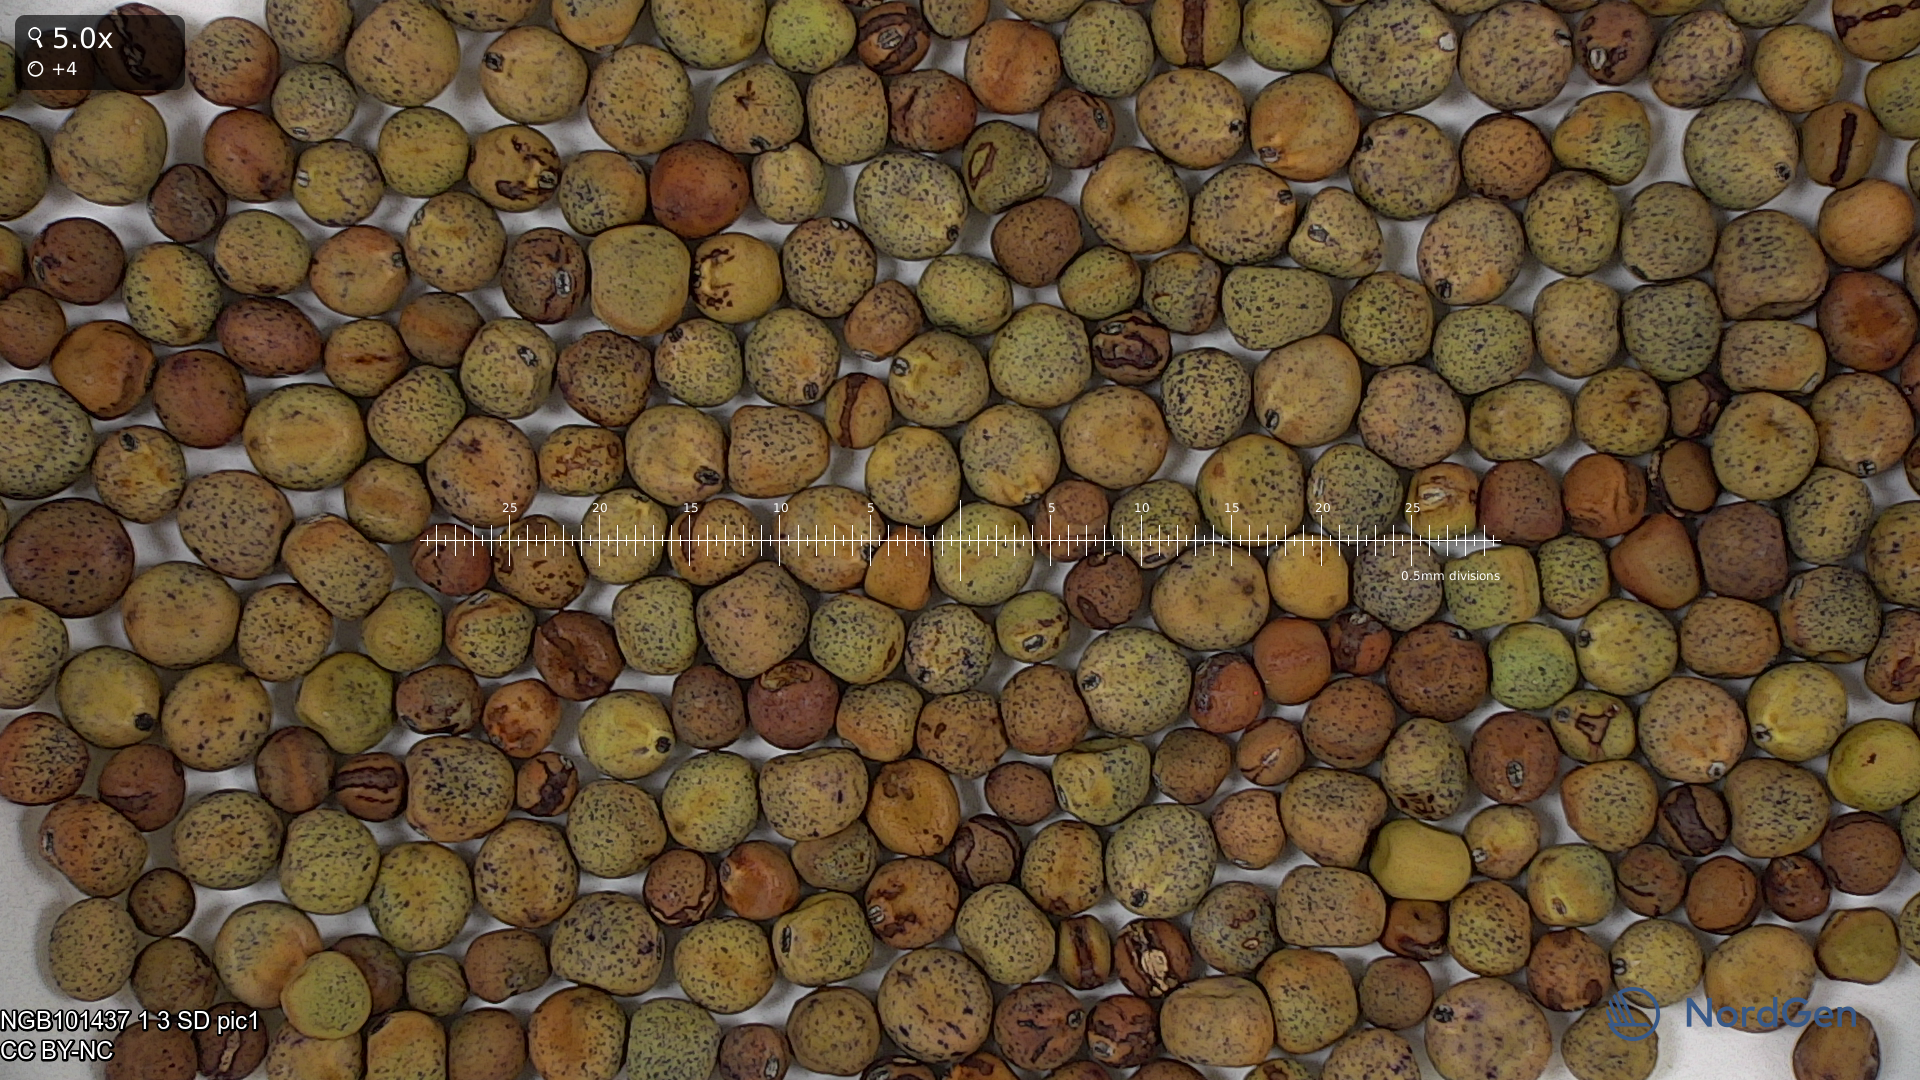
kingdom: Plantae
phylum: Tracheophyta
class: Magnoliopsida
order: Fabales
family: Fabaceae
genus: Lathyrus
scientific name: Lathyrus oleraceus
